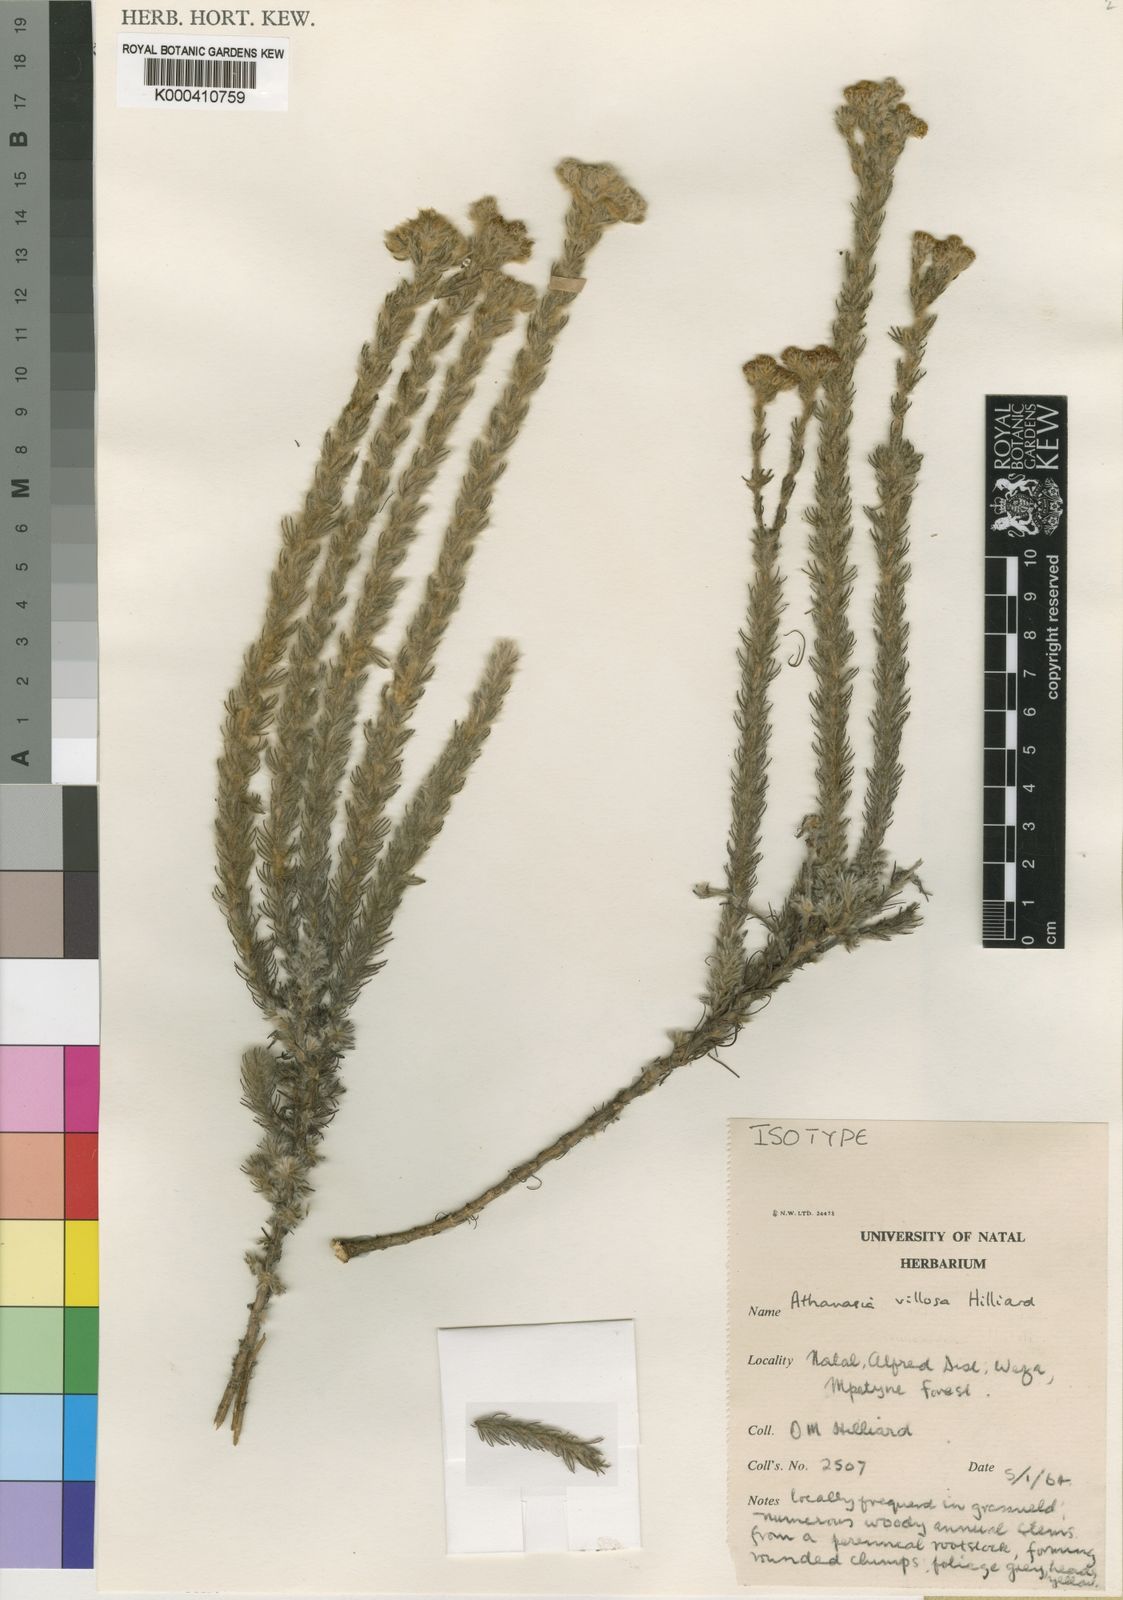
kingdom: Plantae
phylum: Tracheophyta
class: Magnoliopsida
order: Asterales
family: Asteraceae
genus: Phymaspermum
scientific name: Phymaspermum
